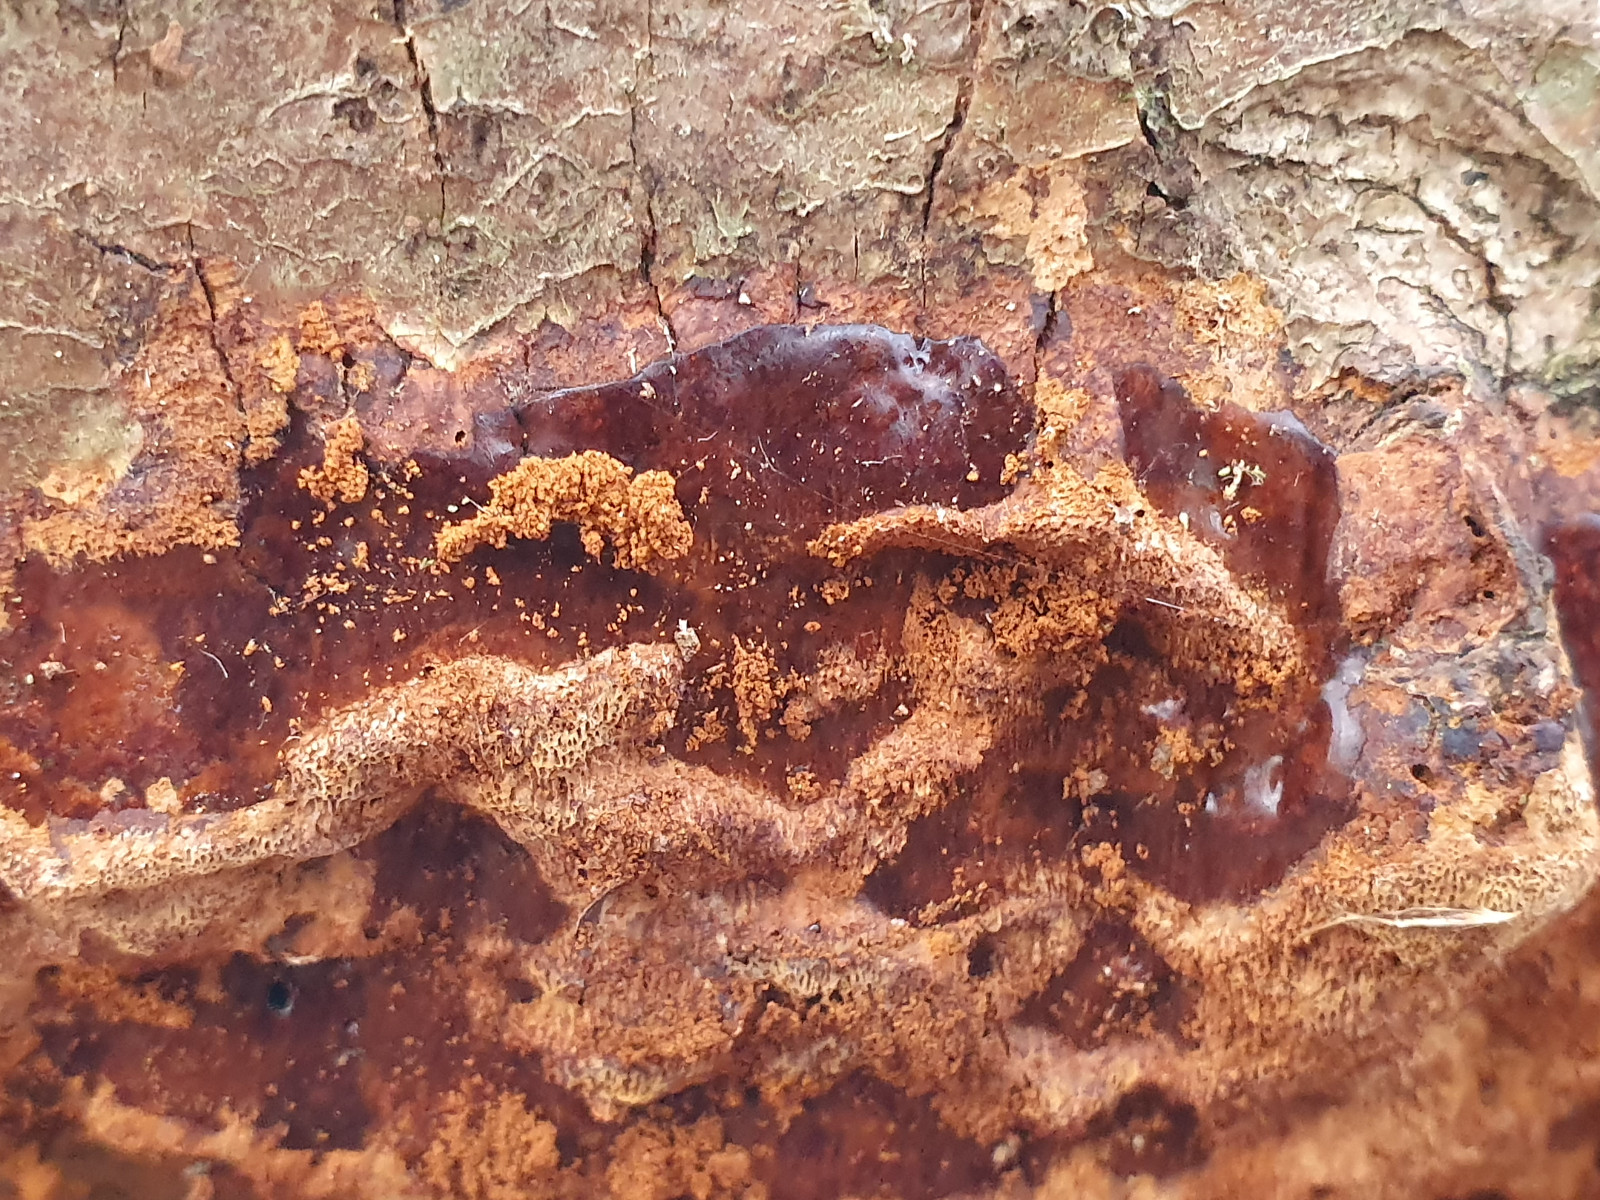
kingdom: Fungi
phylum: Basidiomycota
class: Agaricomycetes
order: Hymenochaetales
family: Hymenochaetaceae
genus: Fuscoporia
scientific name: Fuscoporia ferrea
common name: skorpe-ildporesvamp
